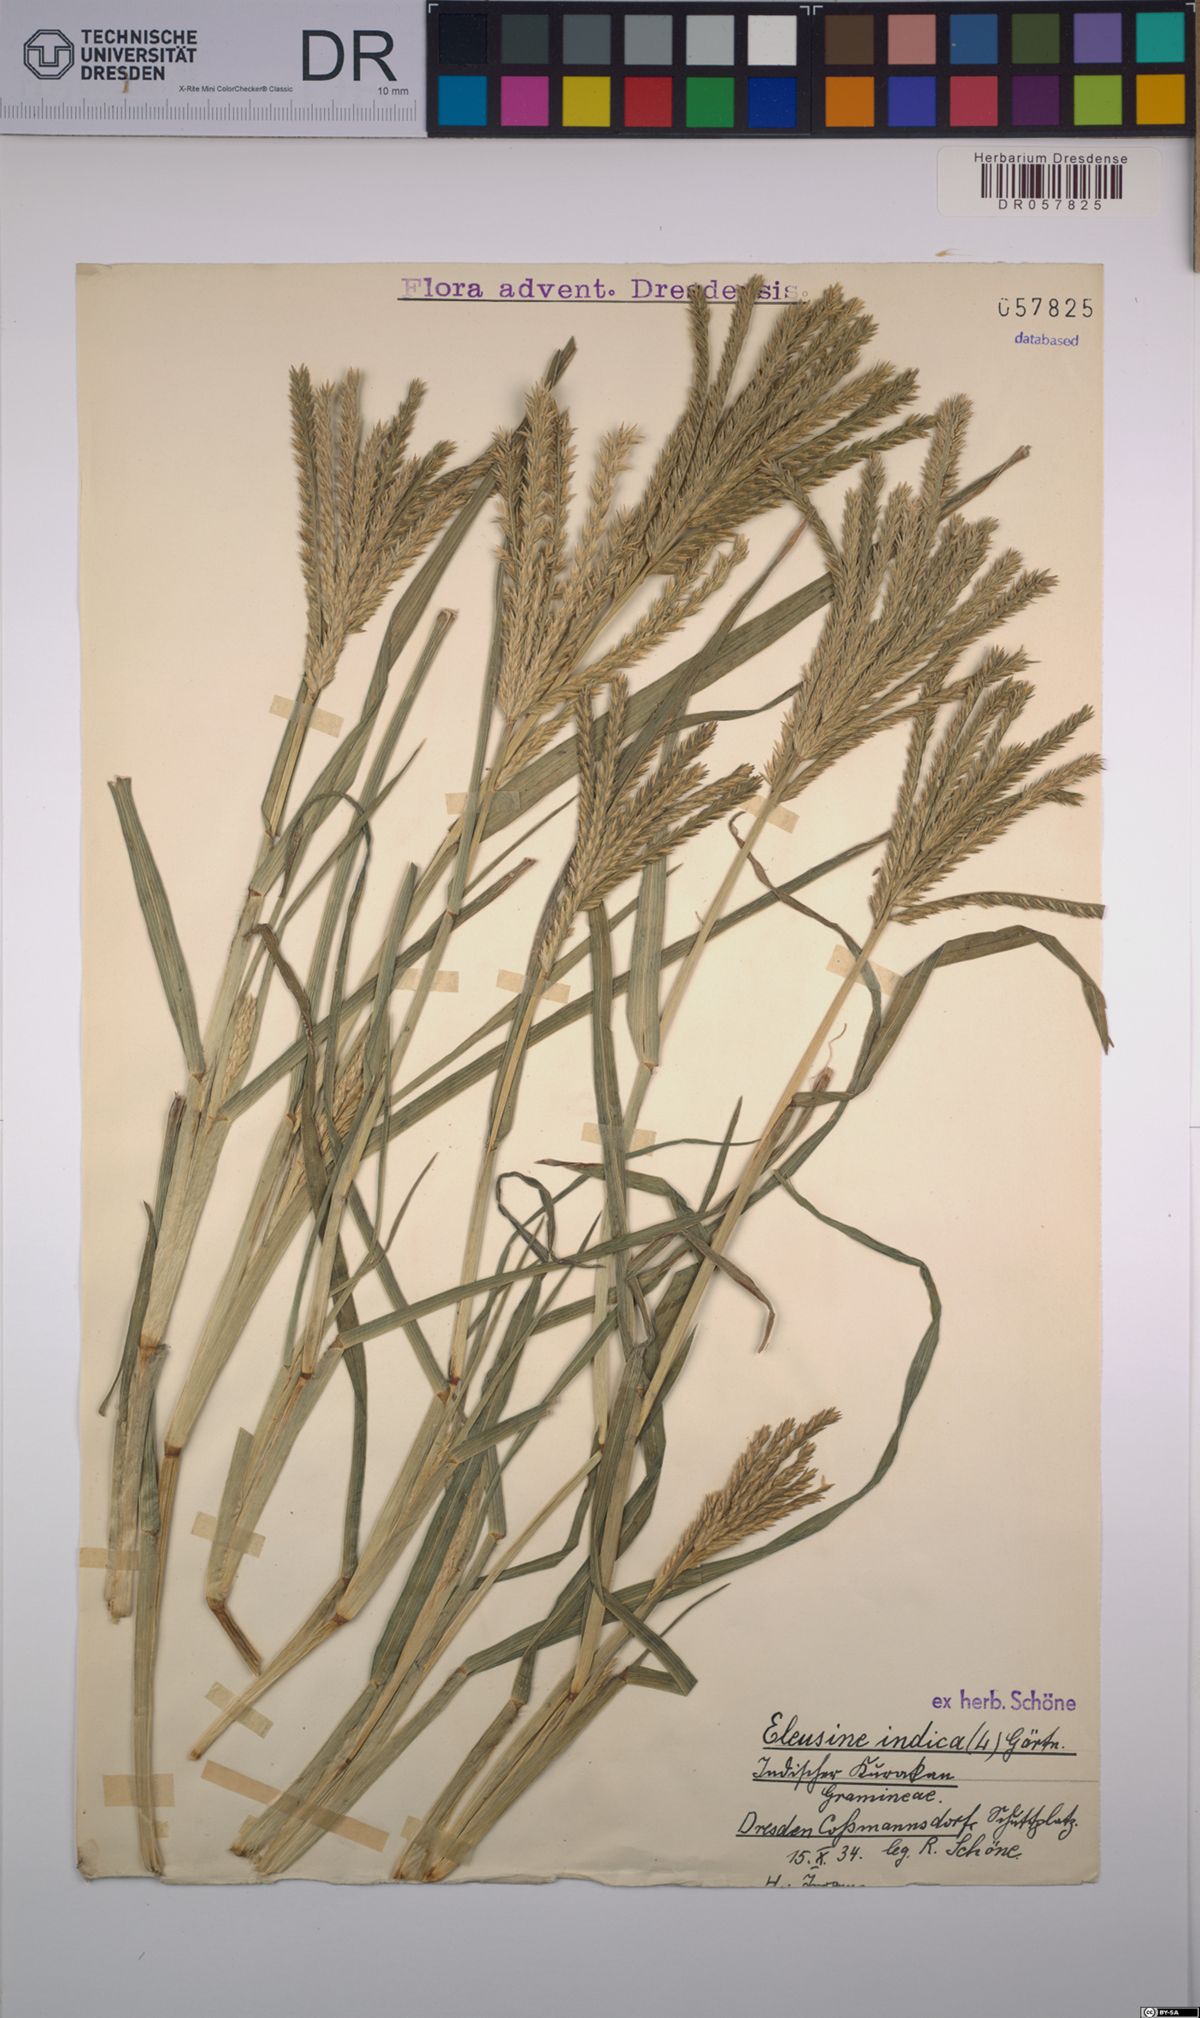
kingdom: Plantae
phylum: Tracheophyta
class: Liliopsida
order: Poales
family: Poaceae
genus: Eleusine
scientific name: Eleusine indica
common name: Yard-grass
